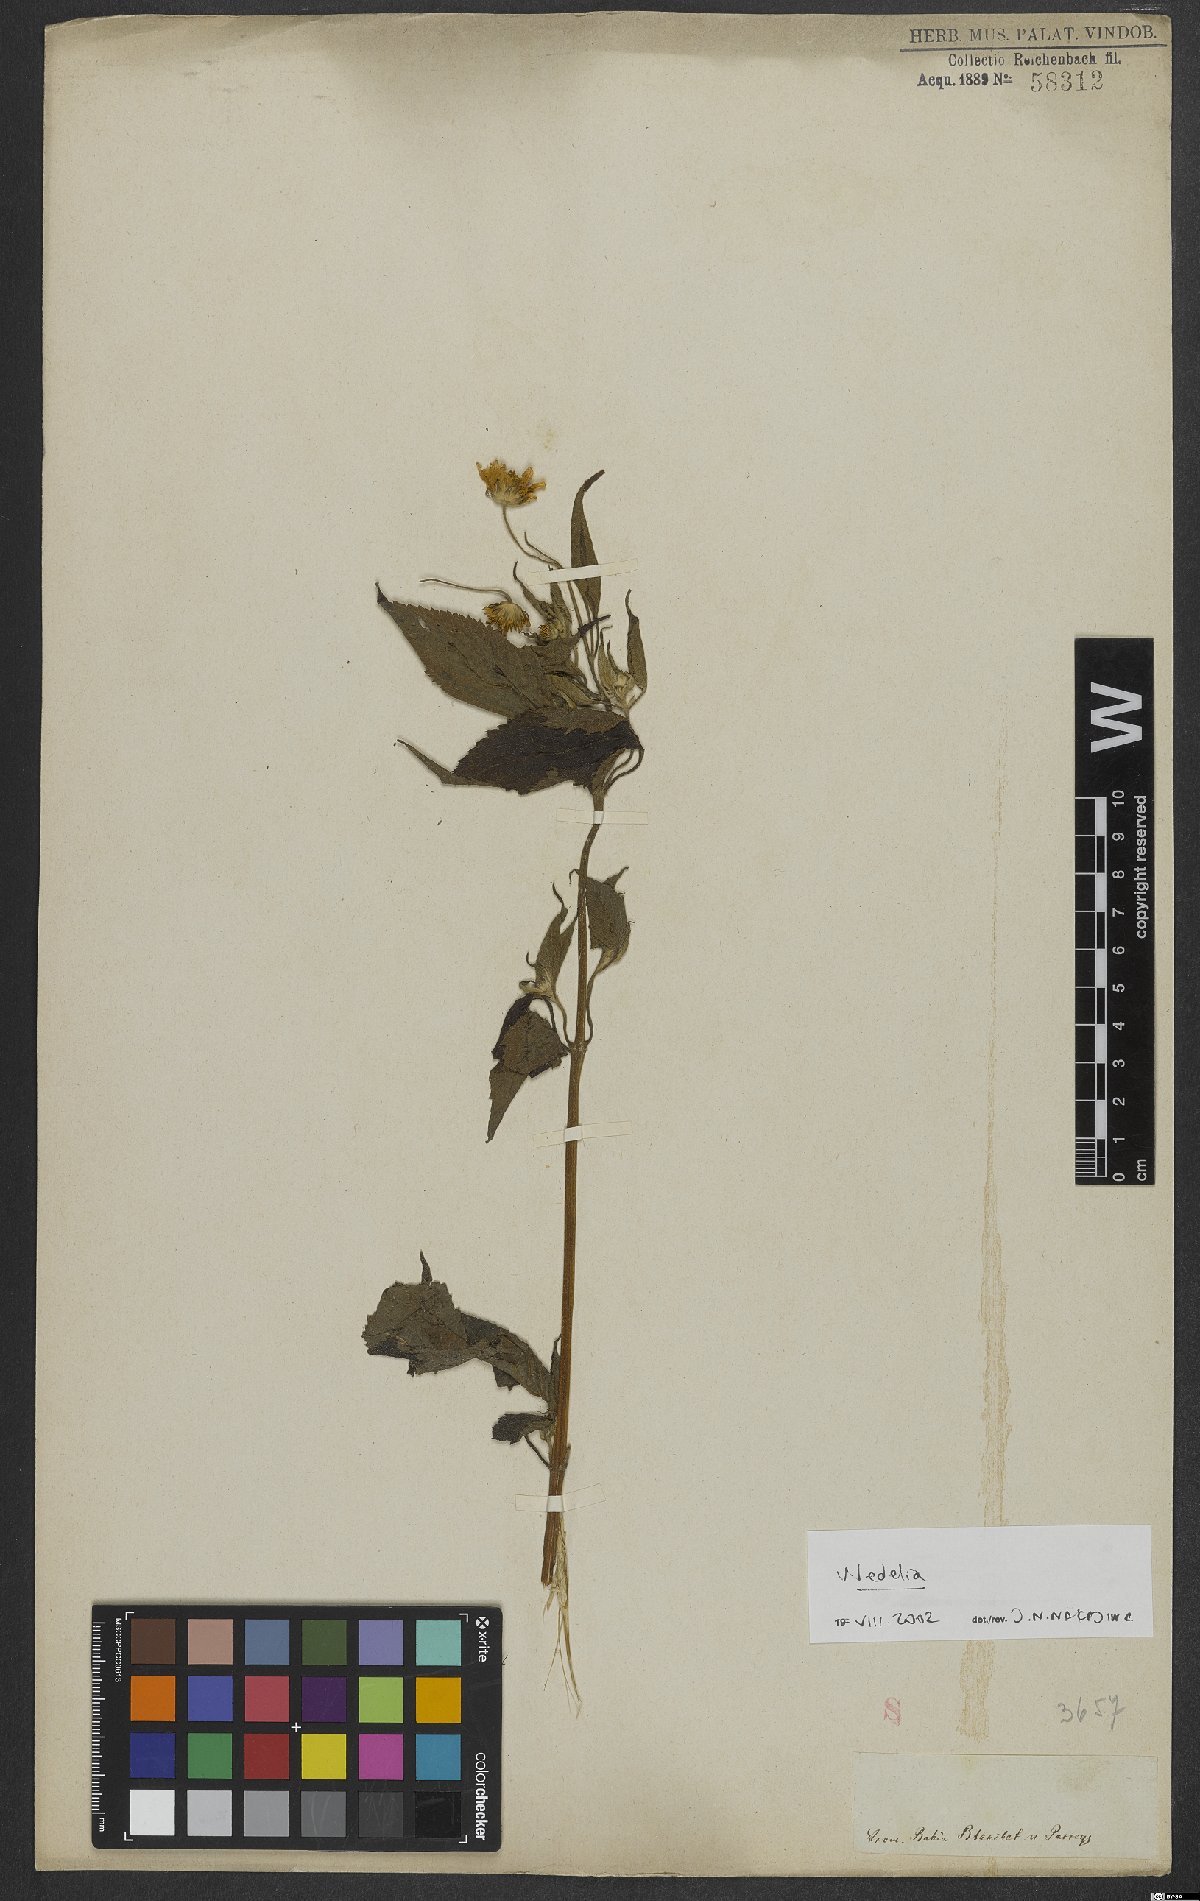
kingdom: Plantae
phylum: Tracheophyta
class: Magnoliopsida
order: Asterales
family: Asteraceae
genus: Wedelia
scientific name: Wedelia
